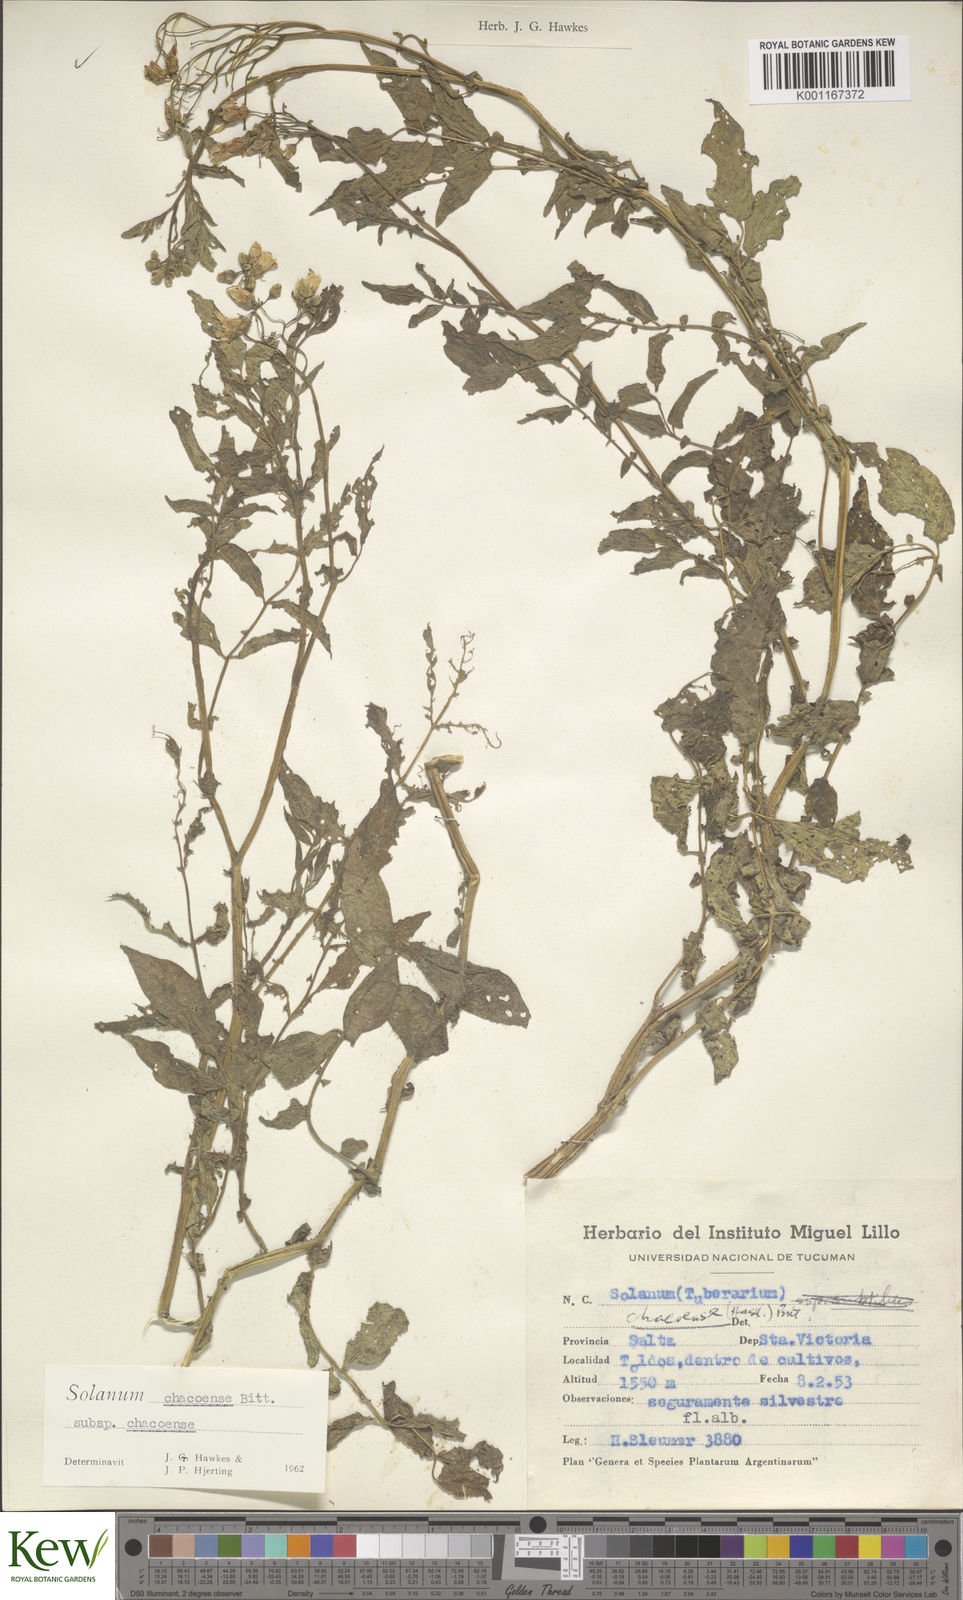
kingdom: Plantae
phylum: Tracheophyta
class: Magnoliopsida
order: Solanales
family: Solanaceae
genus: Solanum
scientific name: Solanum chacoense
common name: Chaco potato
